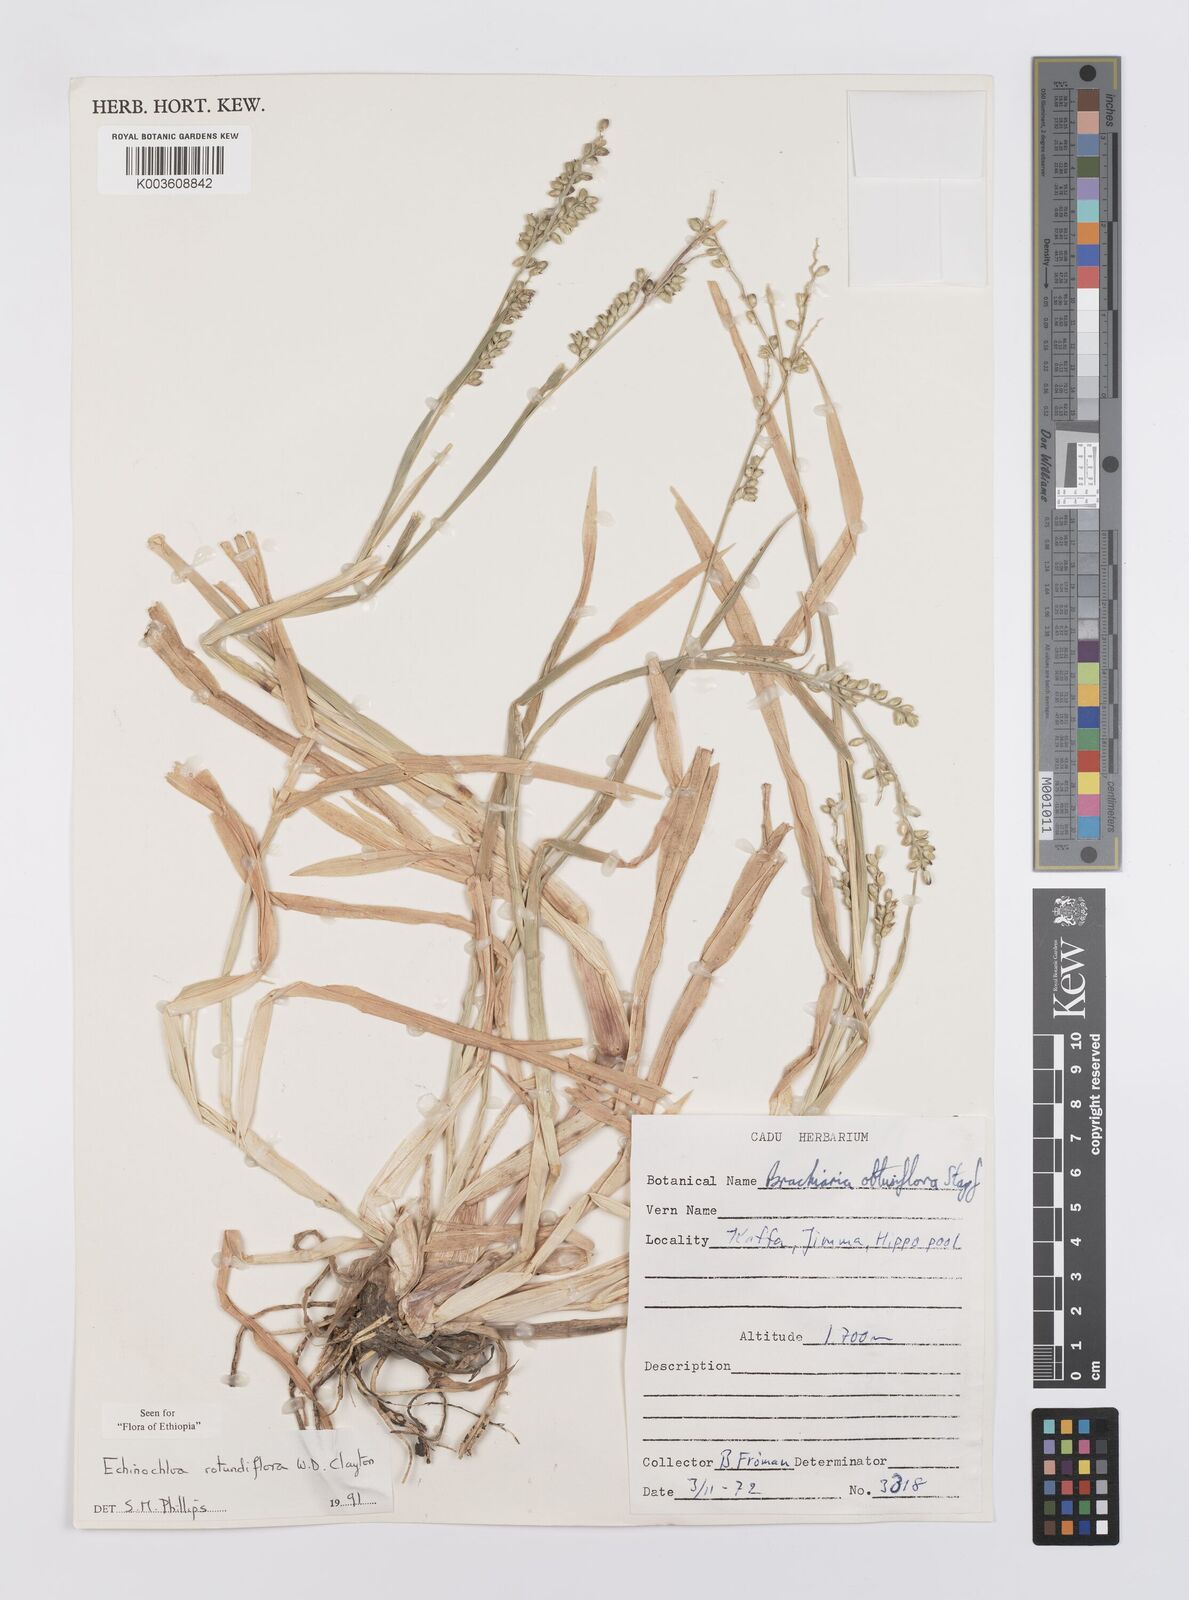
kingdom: Plantae
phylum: Tracheophyta
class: Liliopsida
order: Poales
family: Poaceae
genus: Echinochloa
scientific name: Echinochloa rotundiflora
